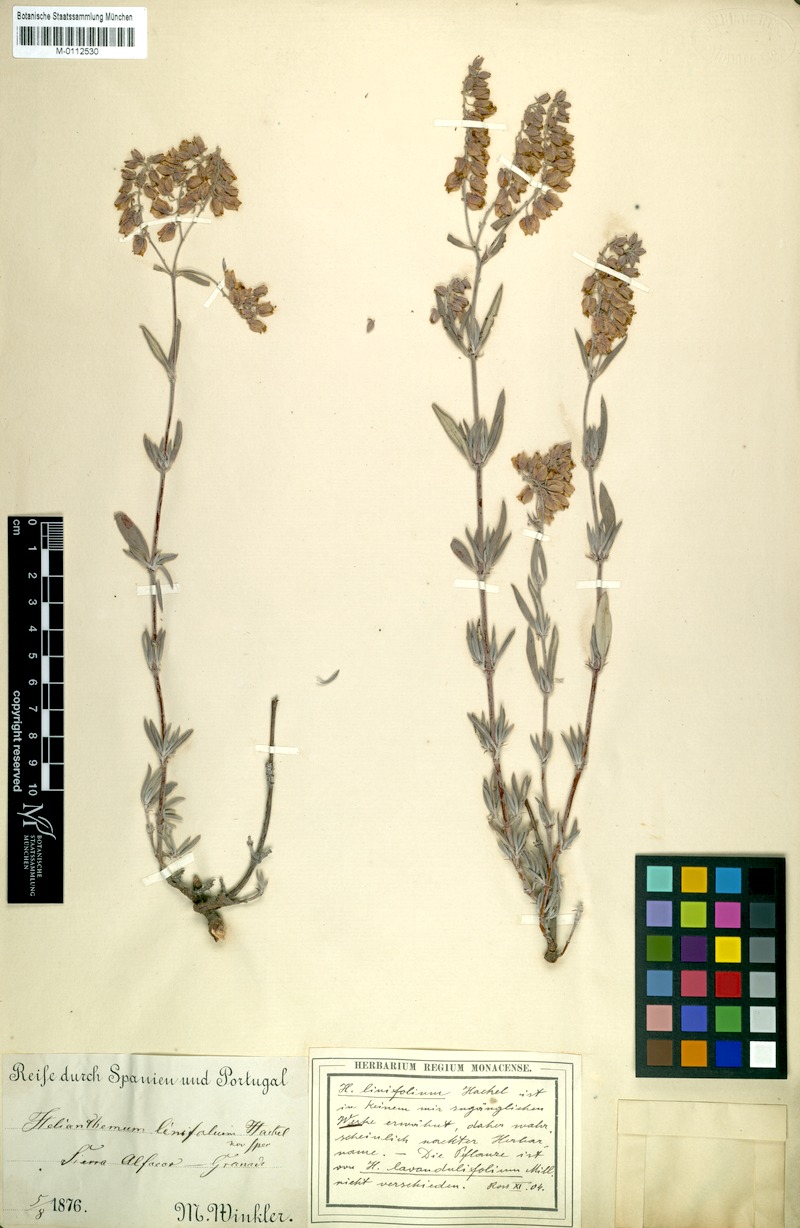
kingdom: Plantae
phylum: Tracheophyta
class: Magnoliopsida
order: Malvales
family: Cistaceae
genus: Helianthemum
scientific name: Helianthemum
